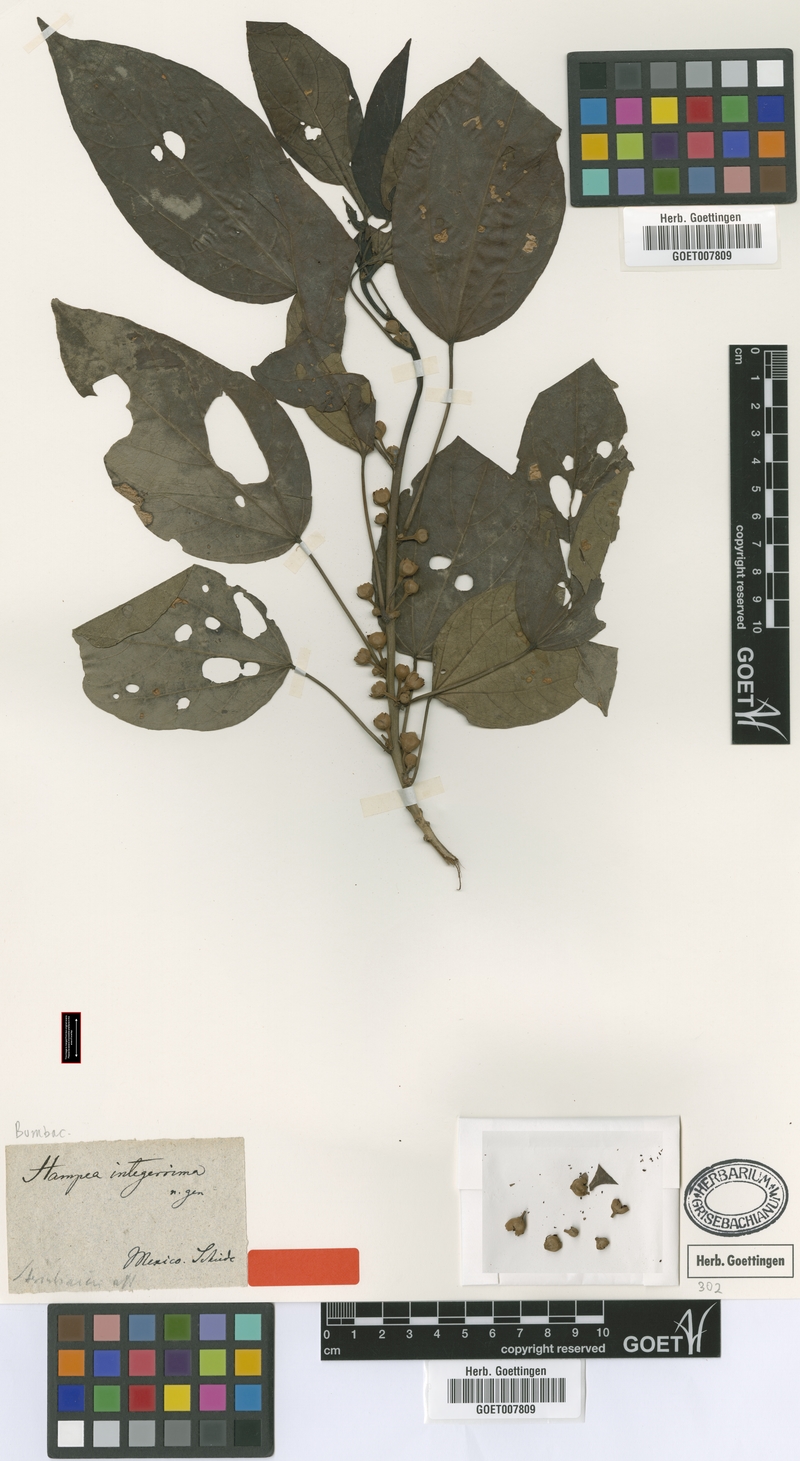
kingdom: Plantae
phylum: Tracheophyta
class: Magnoliopsida
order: Malvales
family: Malvaceae
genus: Hampea
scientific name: Hampea integerrima
